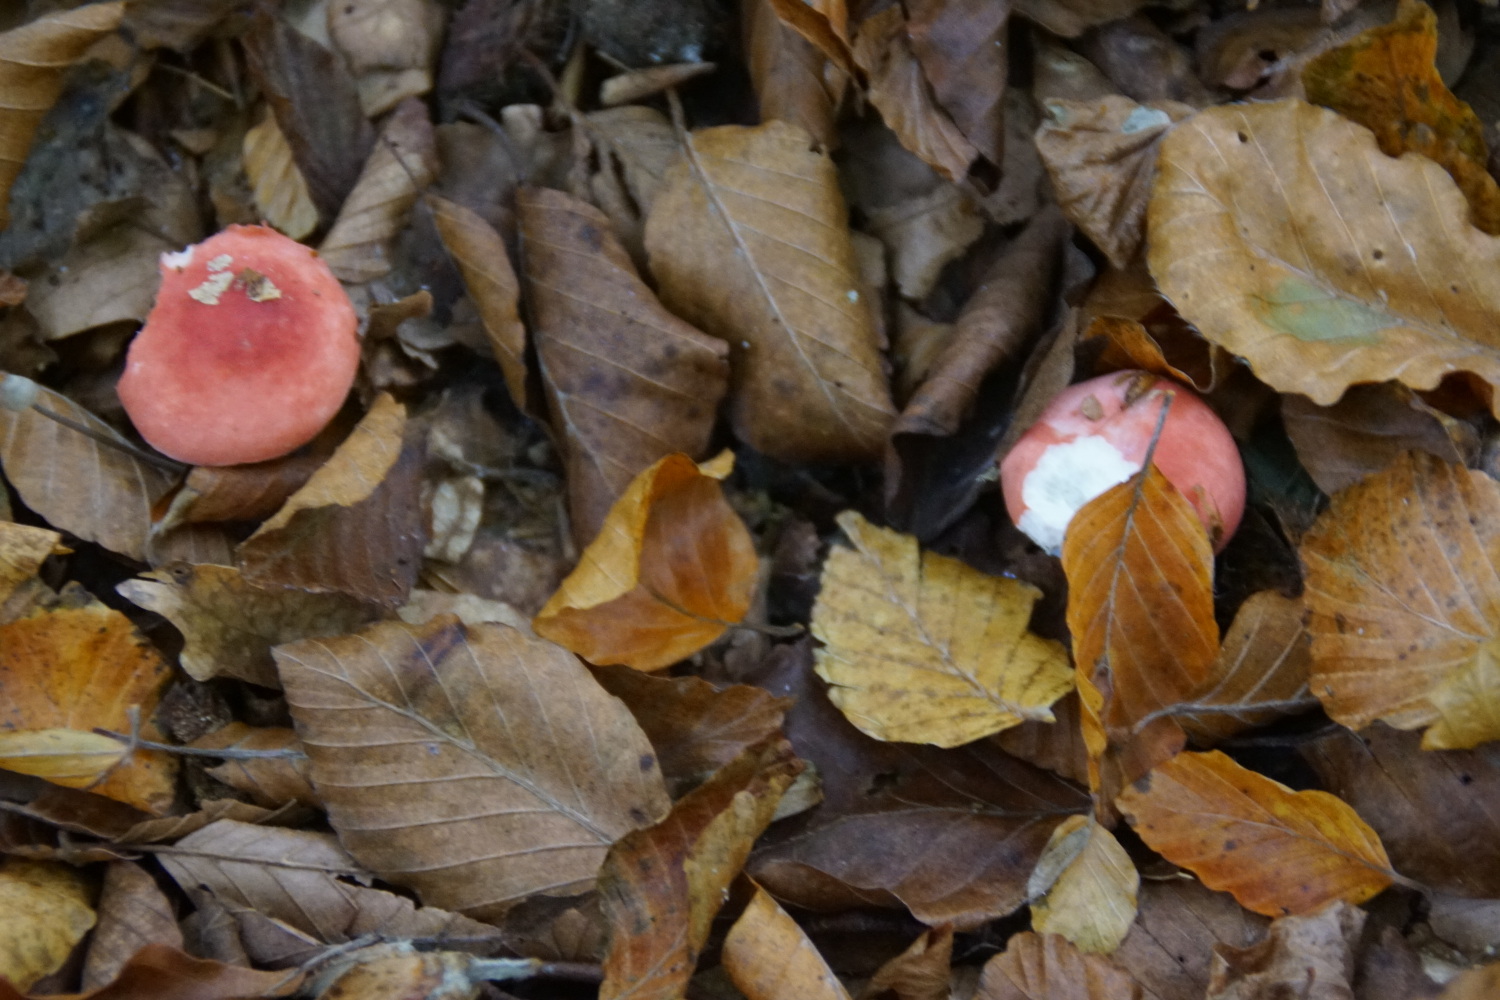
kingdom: Fungi
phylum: Basidiomycota
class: Agaricomycetes
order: Russulales
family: Russulaceae
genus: Russula
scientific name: Russula nobilis
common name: lille gift-skørhat
